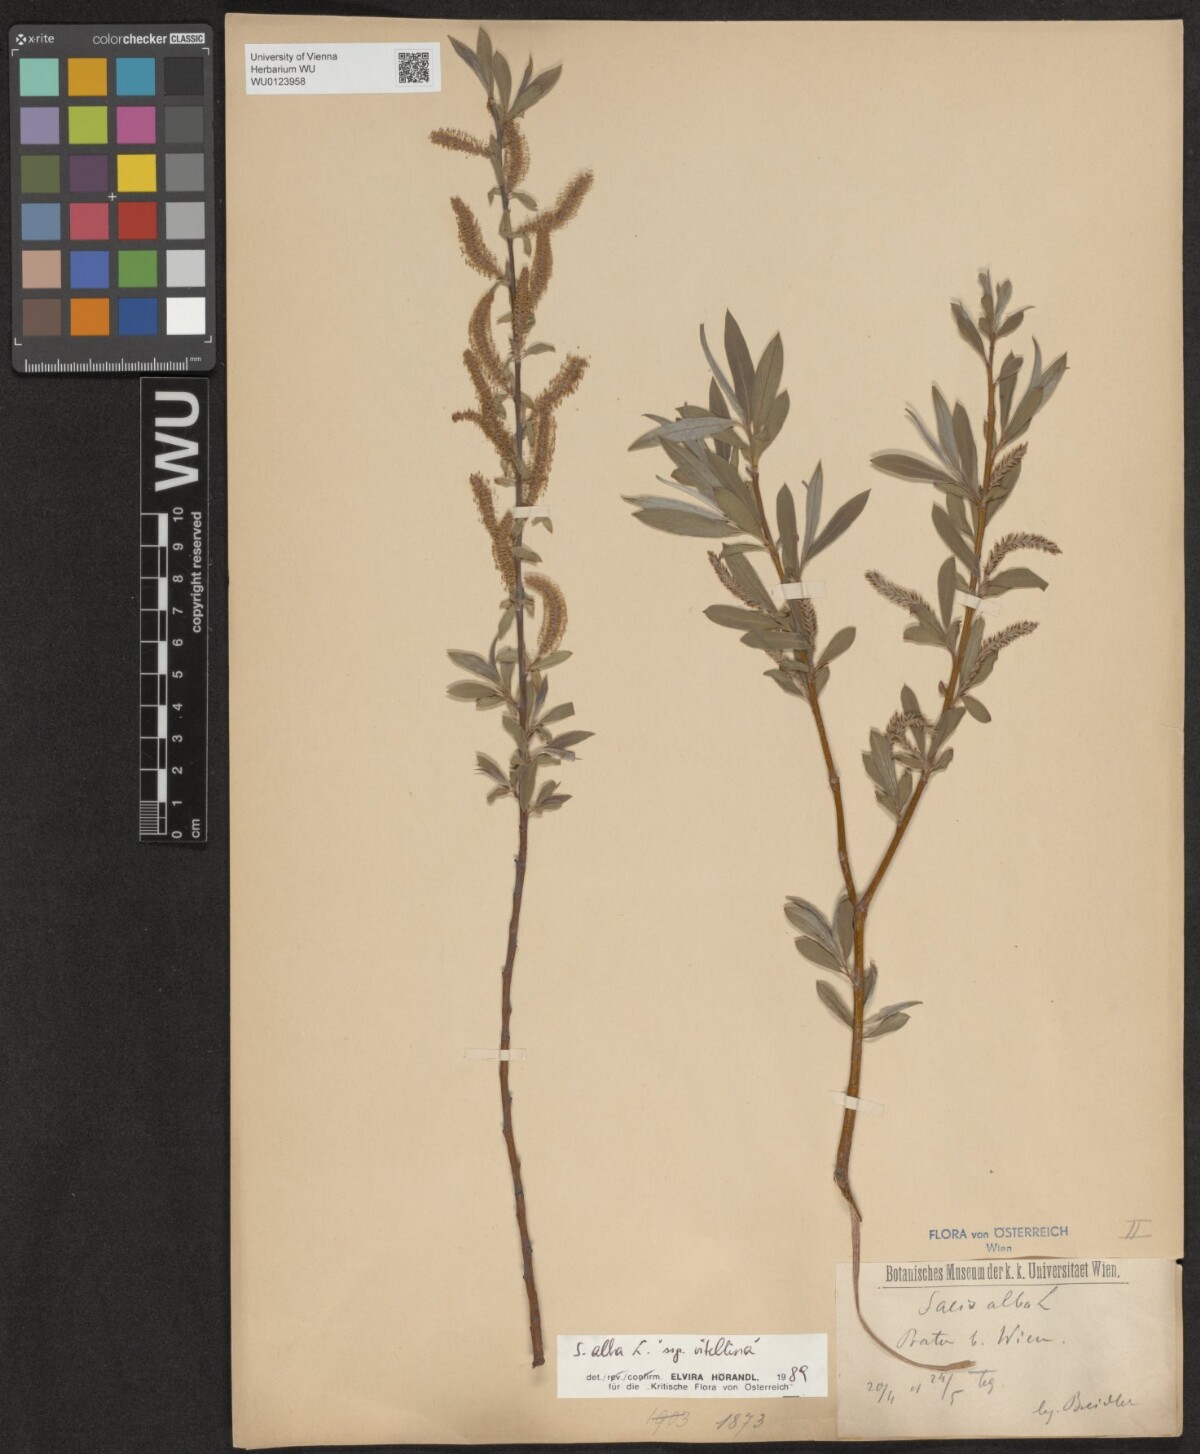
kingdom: Plantae
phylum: Tracheophyta
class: Magnoliopsida
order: Malpighiales
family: Salicaceae
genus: Salix
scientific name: Salix alba
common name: White willow
